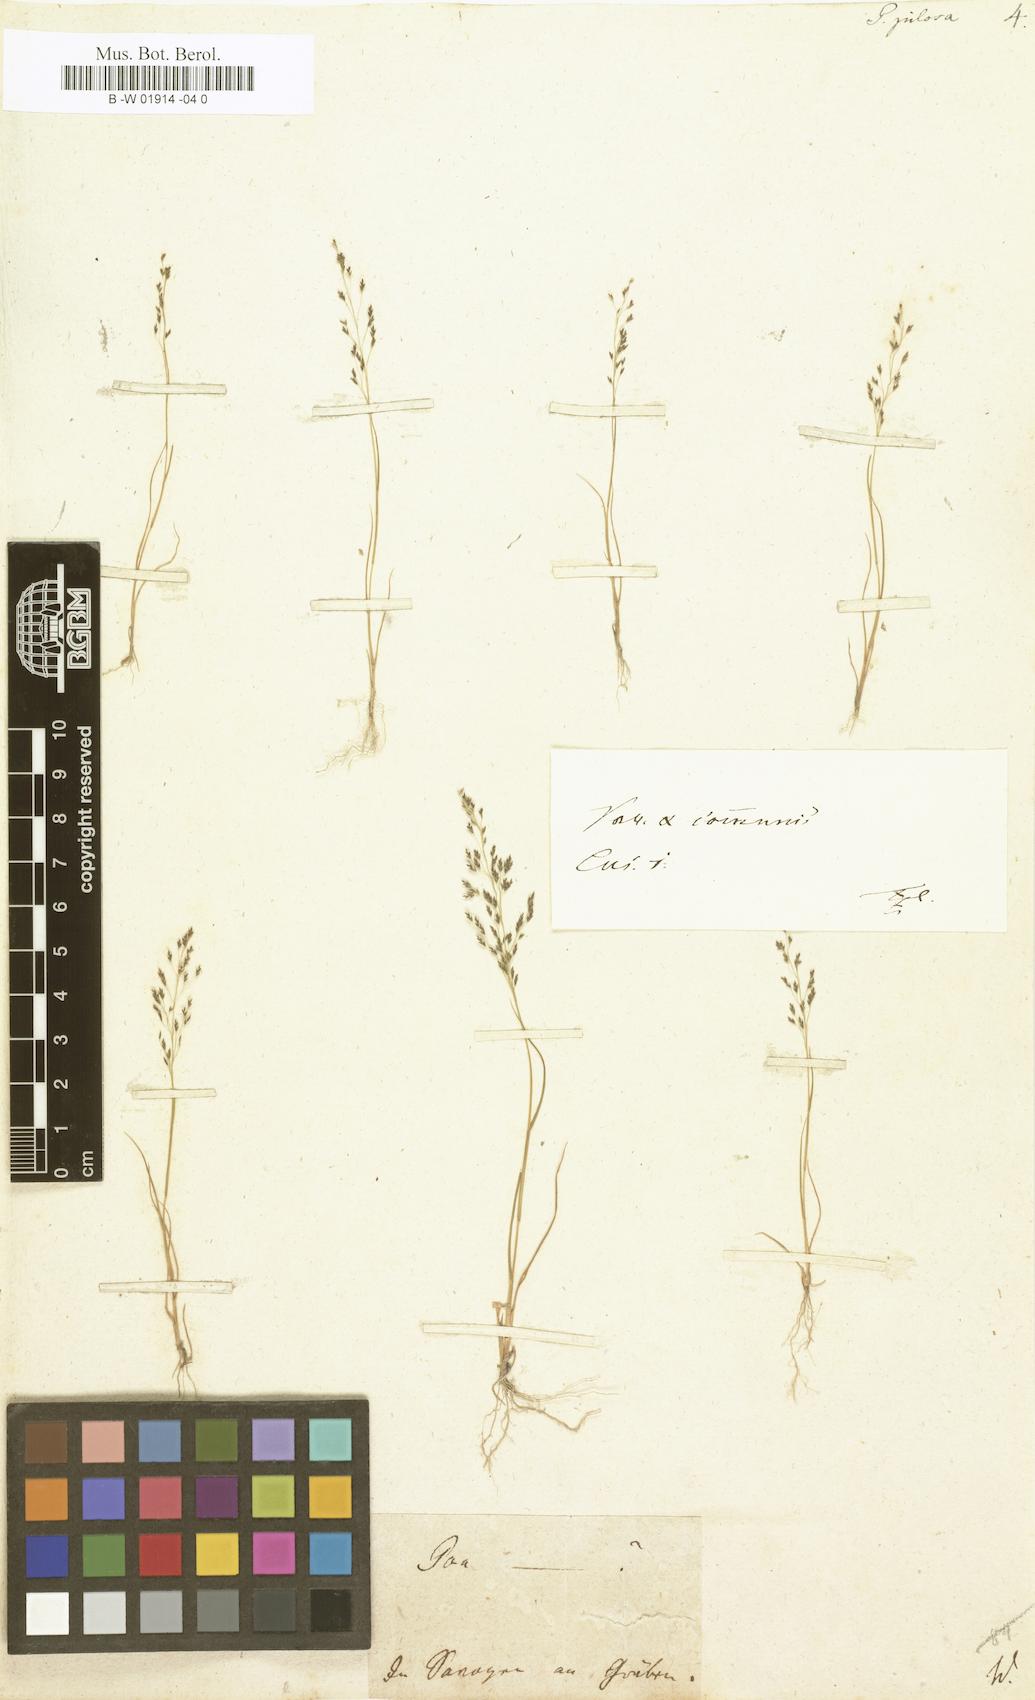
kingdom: Plantae
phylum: Tracheophyta
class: Liliopsida
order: Poales
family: Poaceae
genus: Eragrostis
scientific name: Eragrostis pilosa
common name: Indian lovegrass
